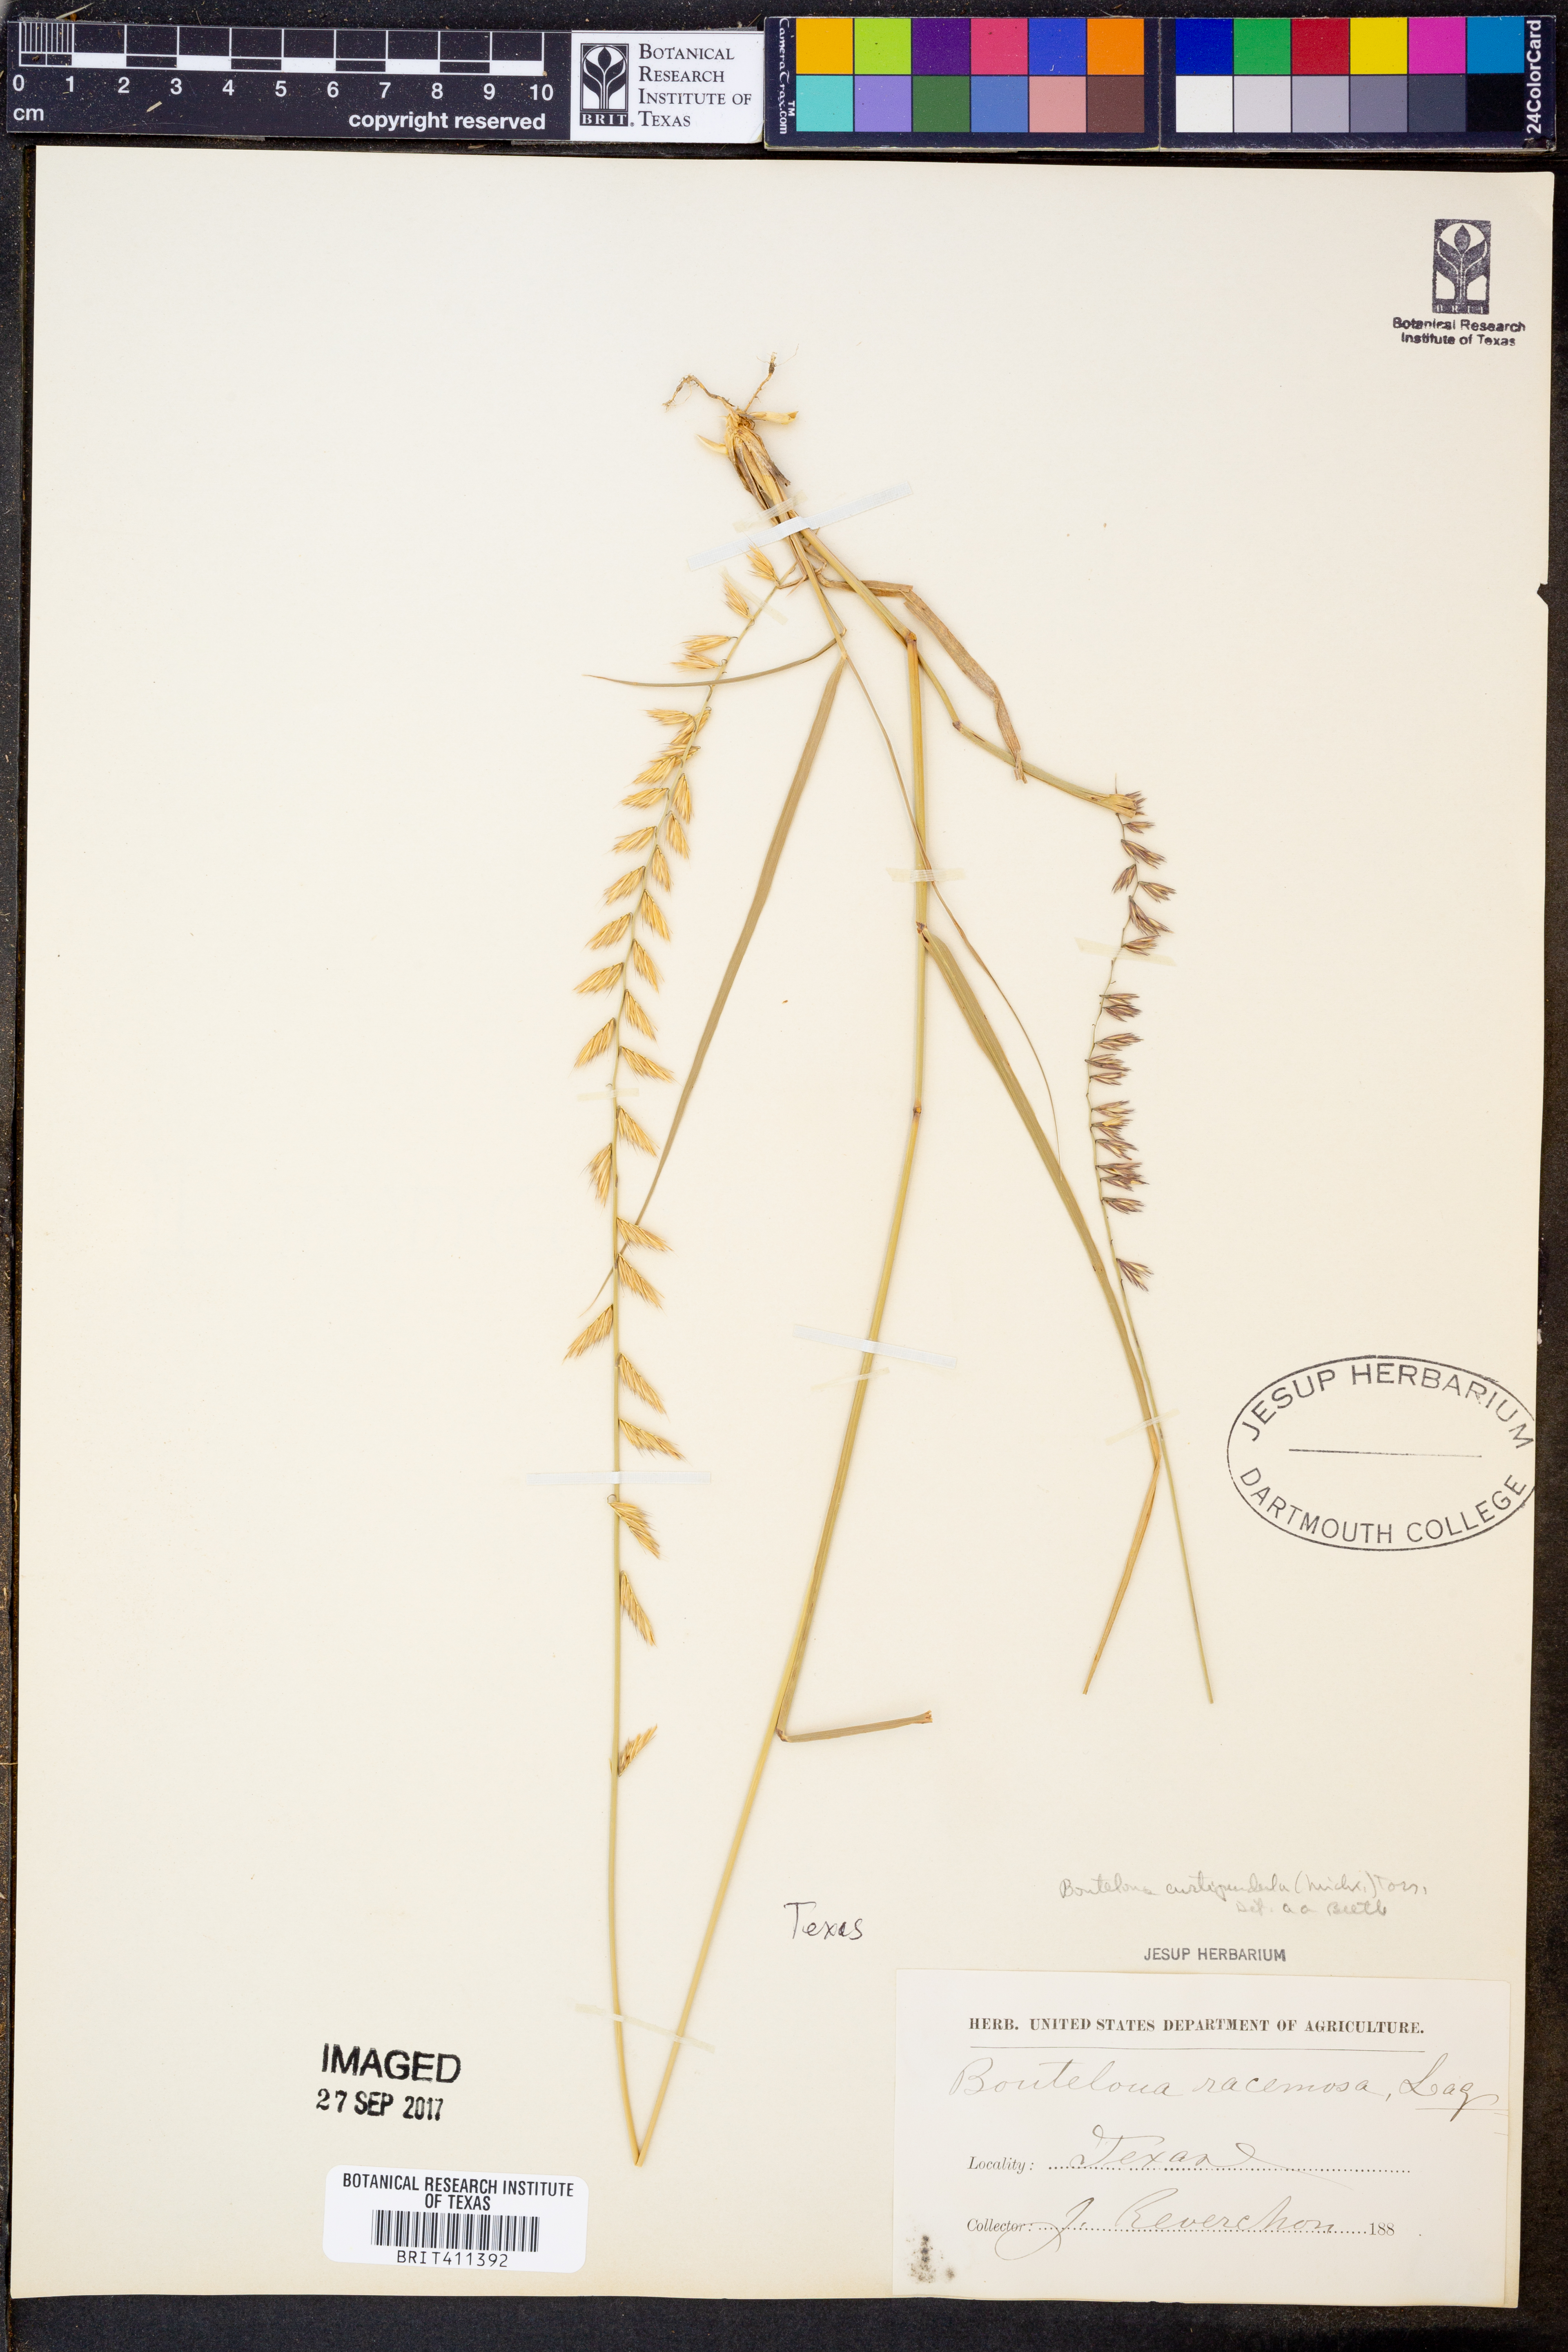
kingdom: Plantae
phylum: Tracheophyta
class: Liliopsida
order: Poales
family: Poaceae
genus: Bouteloua
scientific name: Bouteloua curtipendula
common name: Side-oats grama
